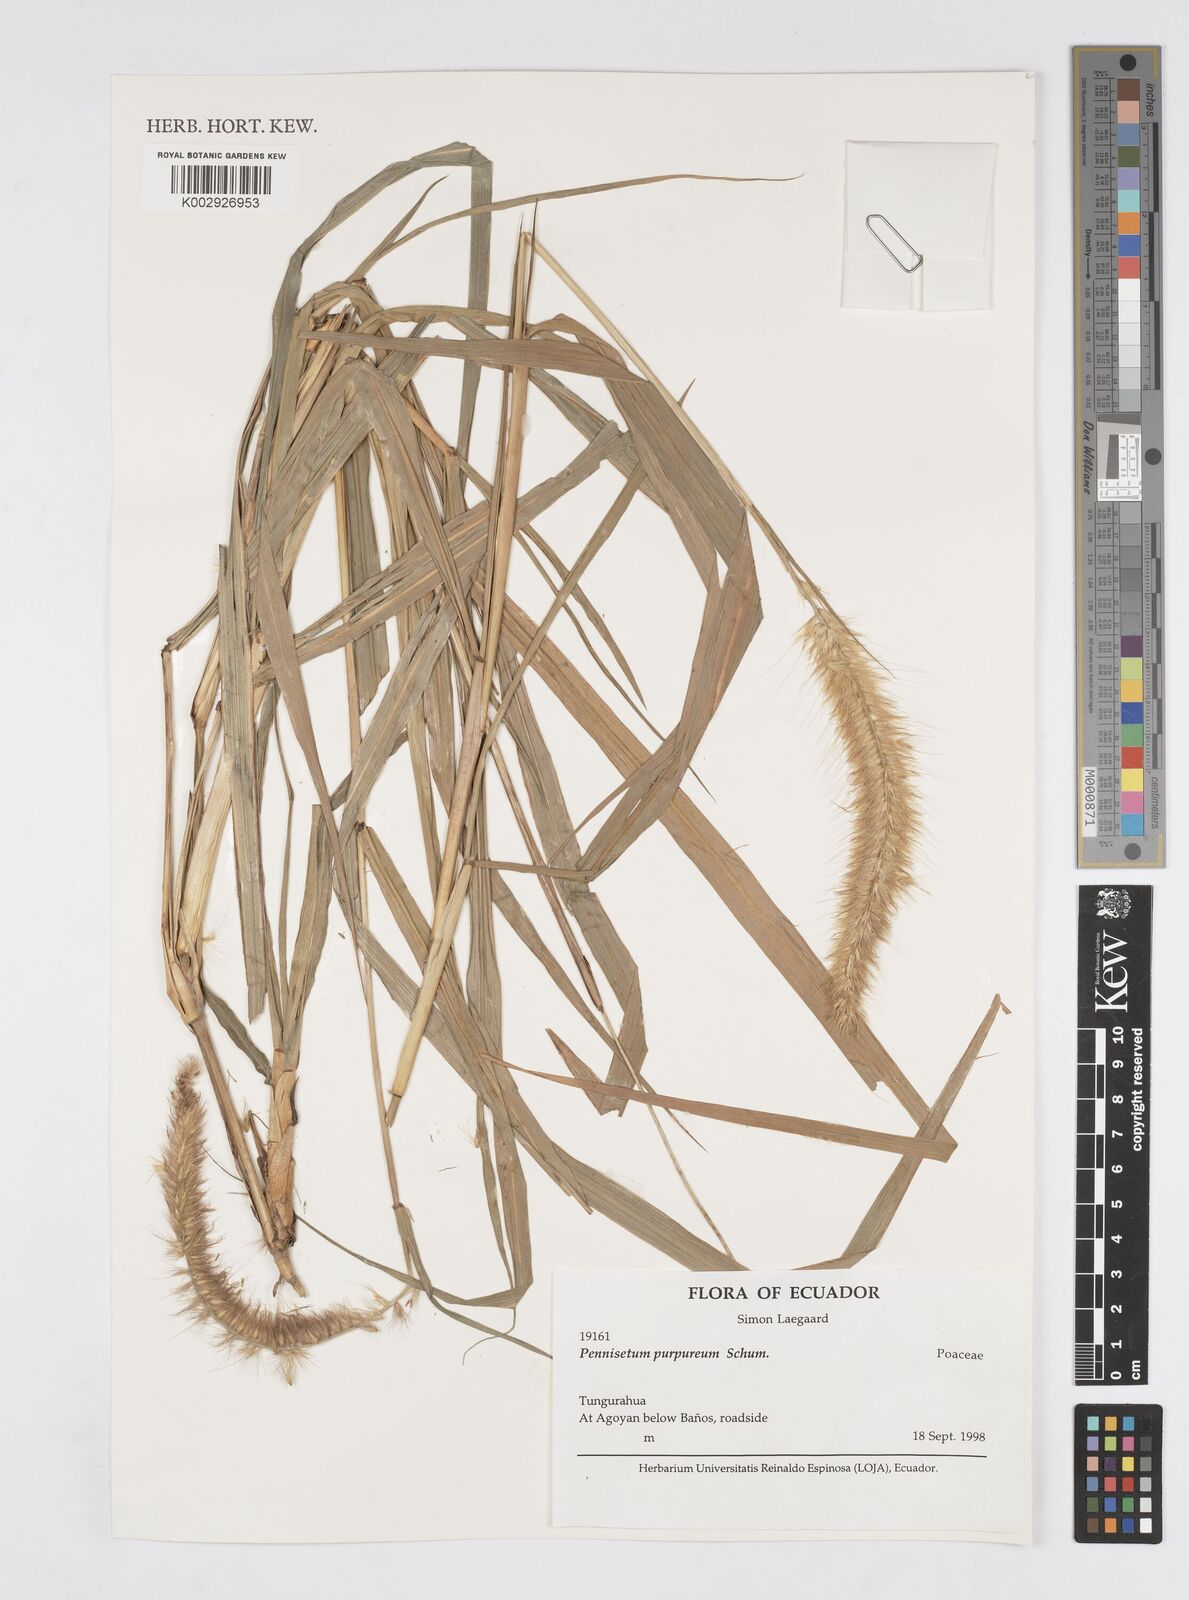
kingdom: Plantae
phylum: Tracheophyta
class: Liliopsida
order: Poales
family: Poaceae
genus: Cenchrus
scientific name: Cenchrus Pennisetum spec
